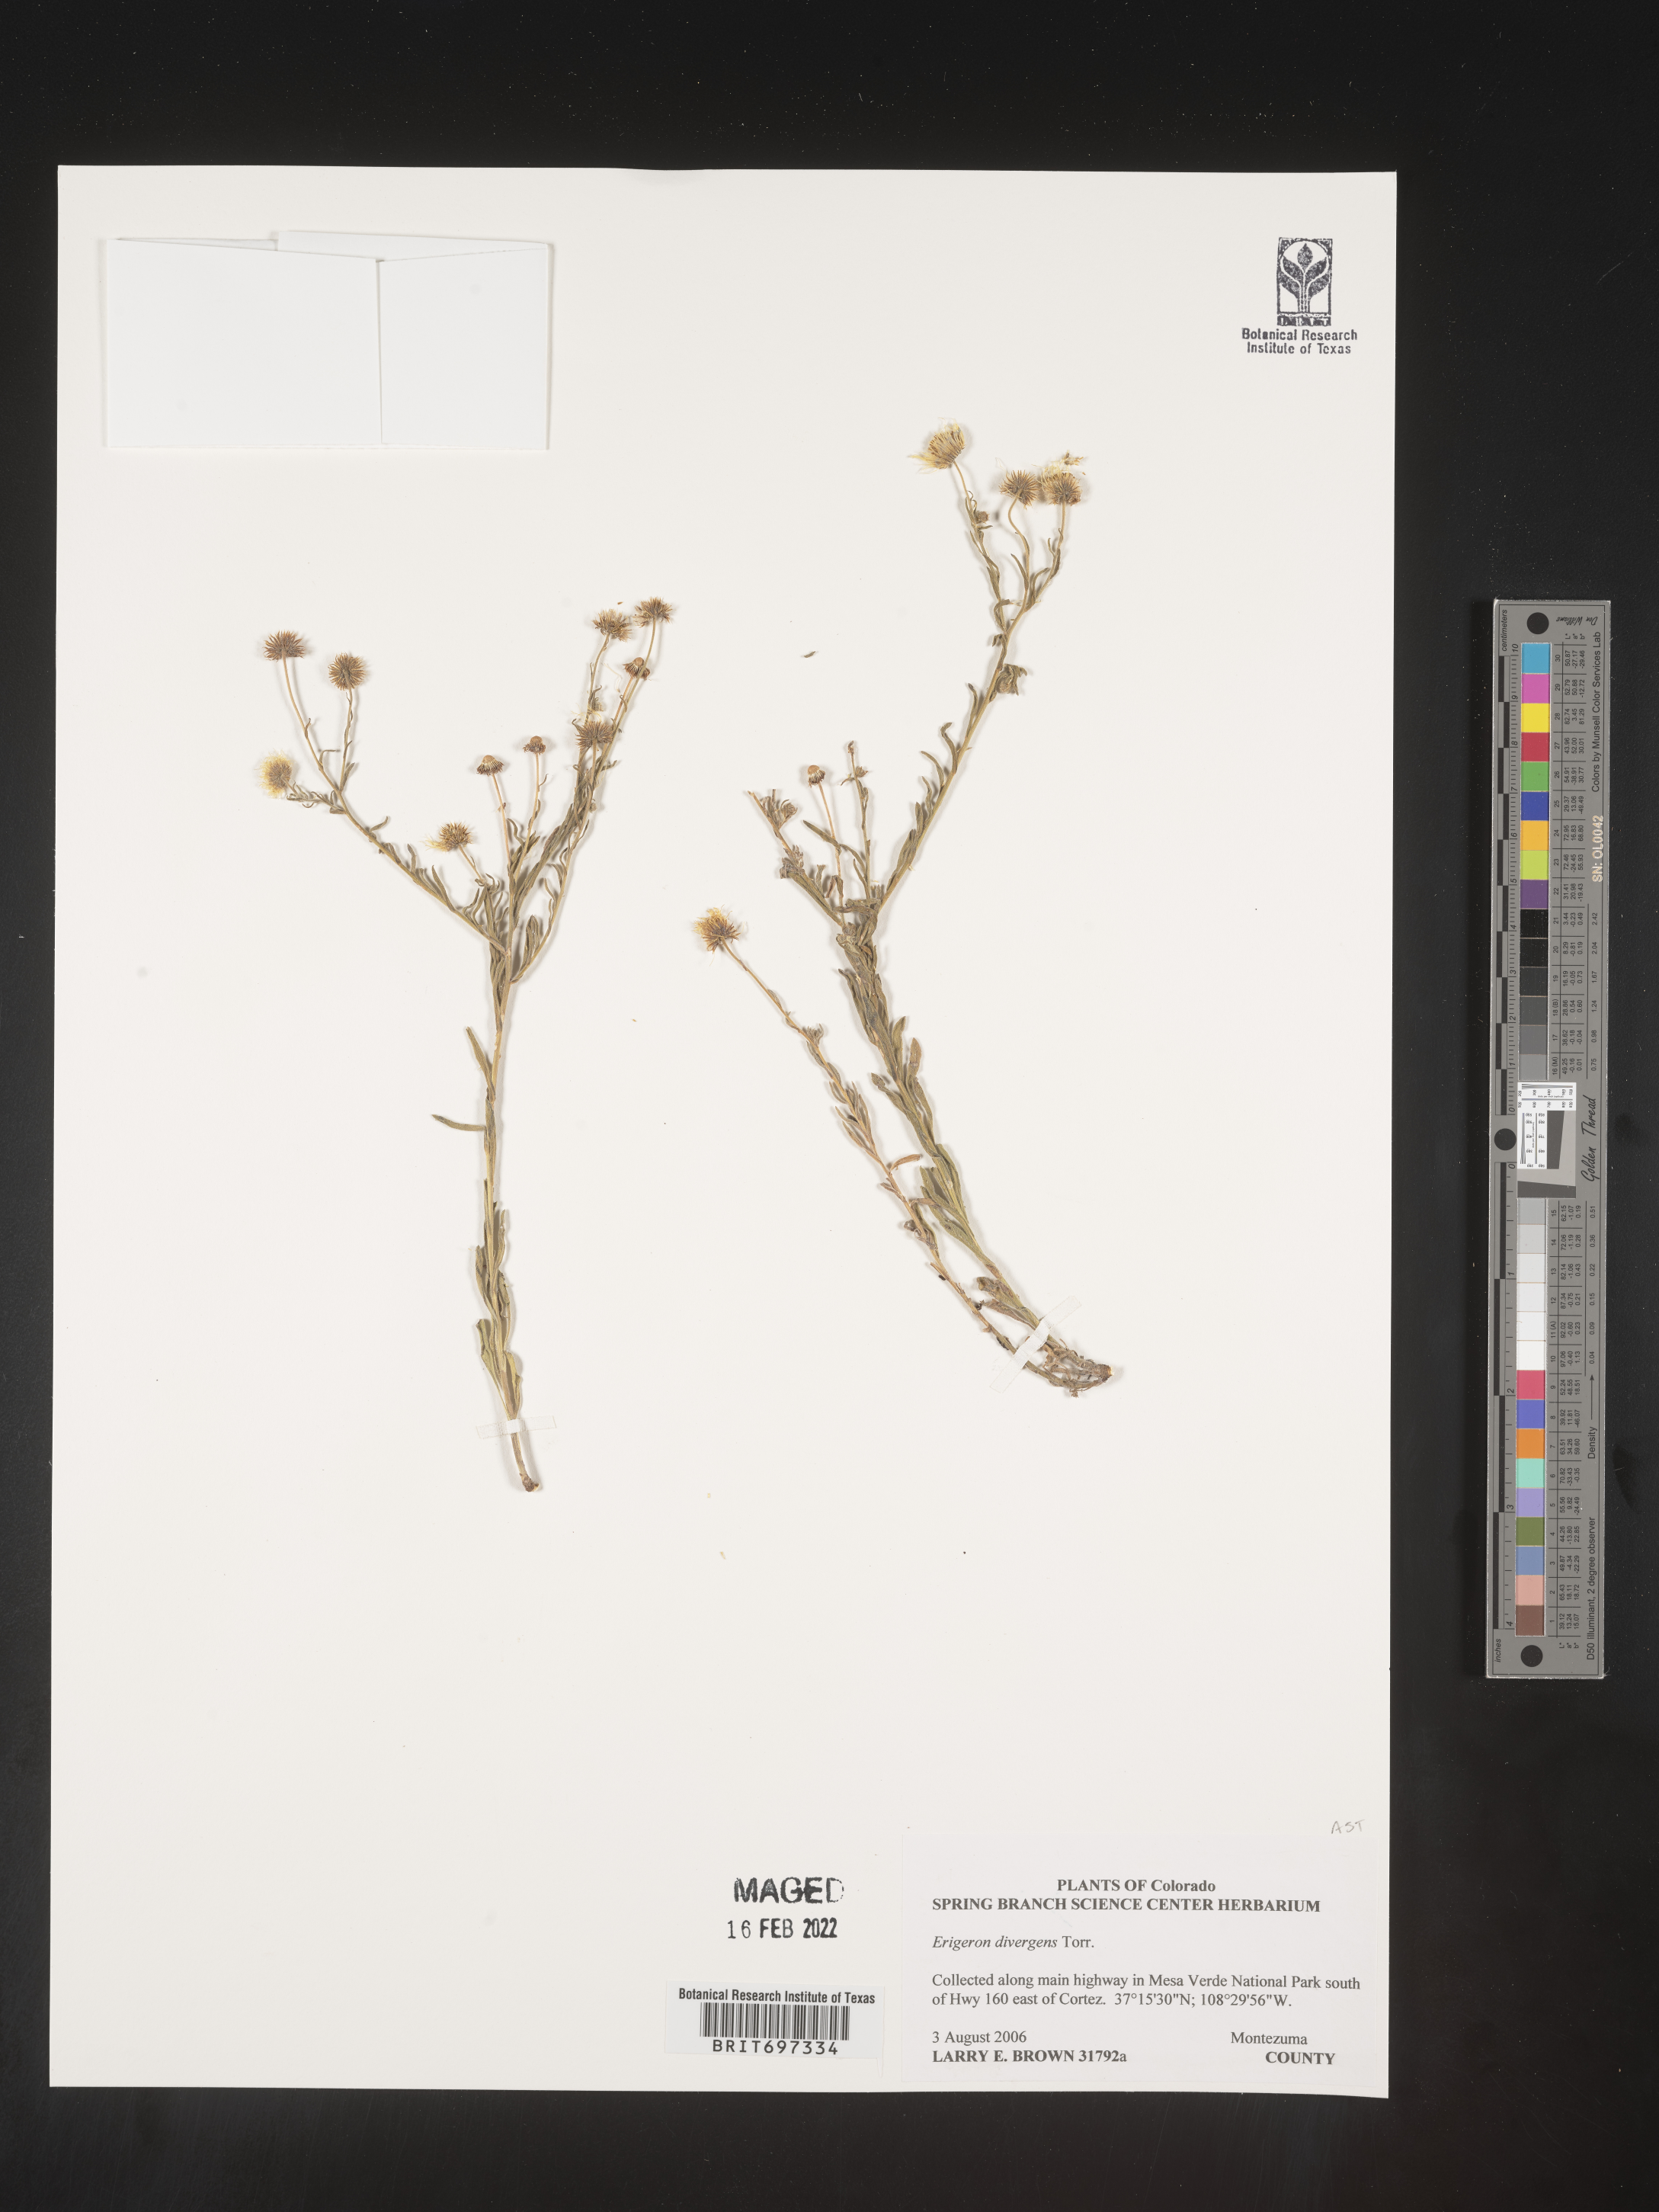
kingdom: Plantae
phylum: Tracheophyta
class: Magnoliopsida
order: Asterales
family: Asteraceae
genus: Erigeron
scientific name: Erigeron divergens
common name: Diffuse fleabane
